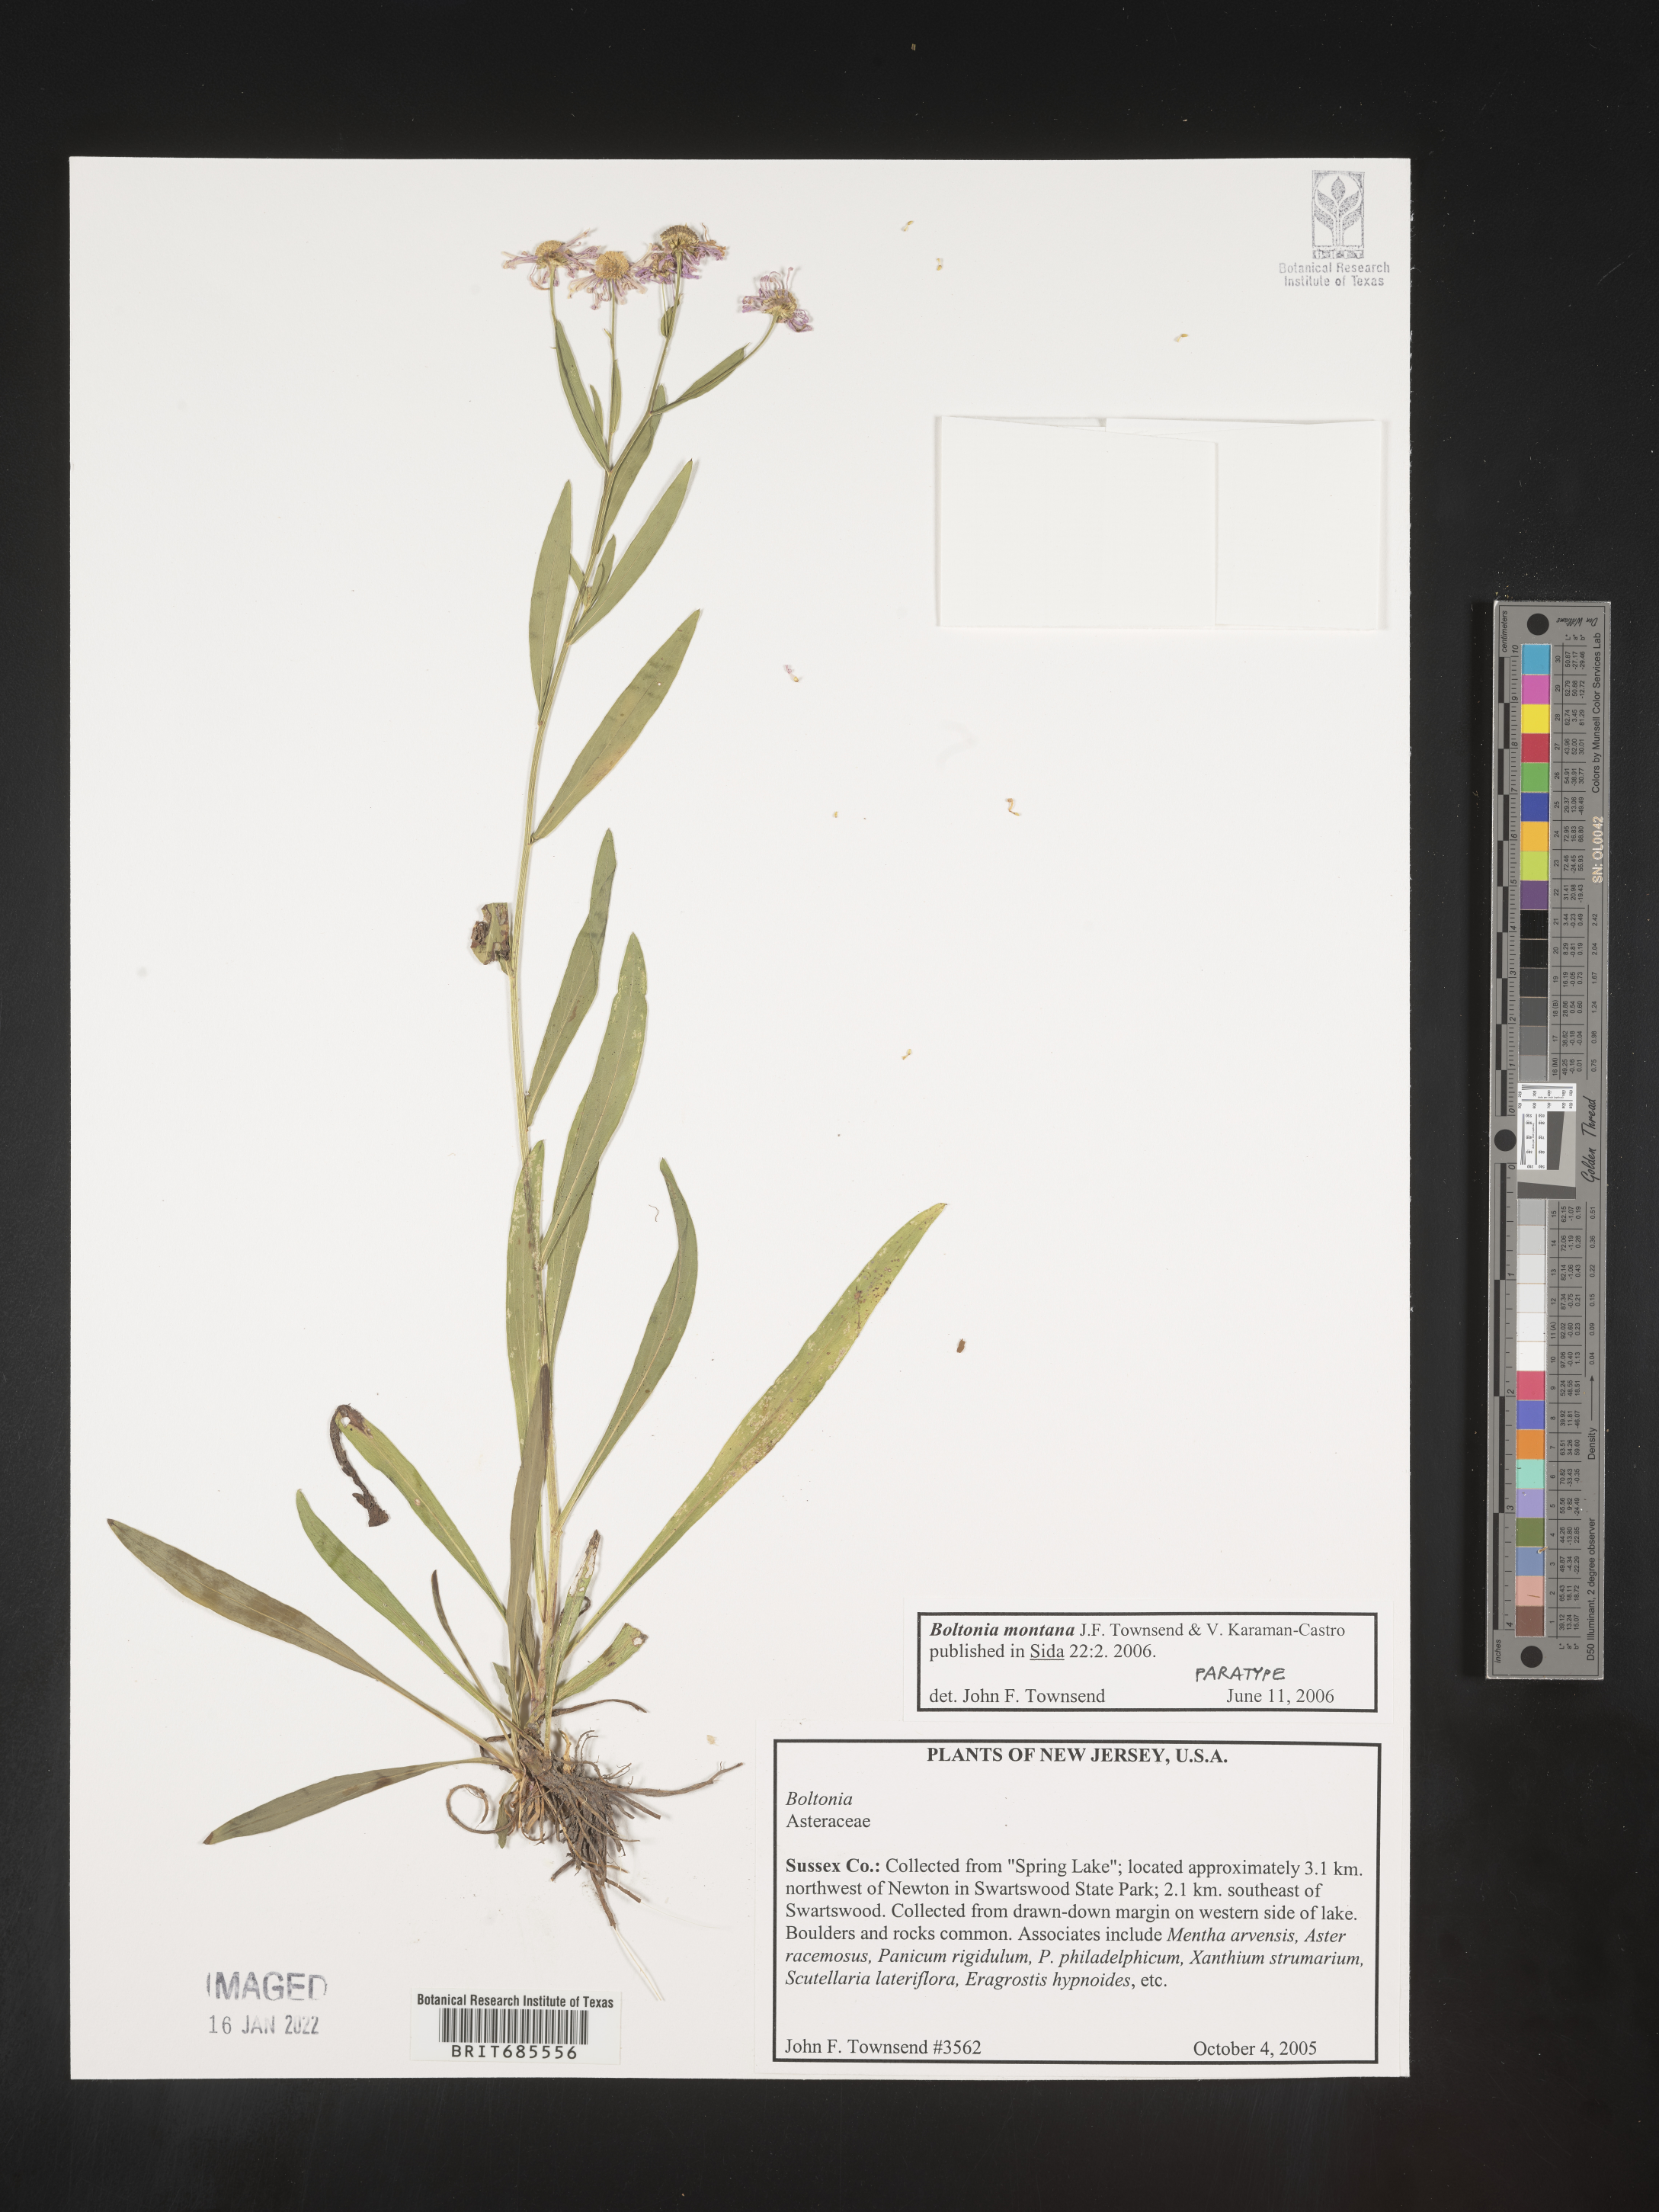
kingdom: Plantae
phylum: Tracheophyta
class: Magnoliopsida
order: Asterales
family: Asteraceae
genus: Boltonia
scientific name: Boltonia
